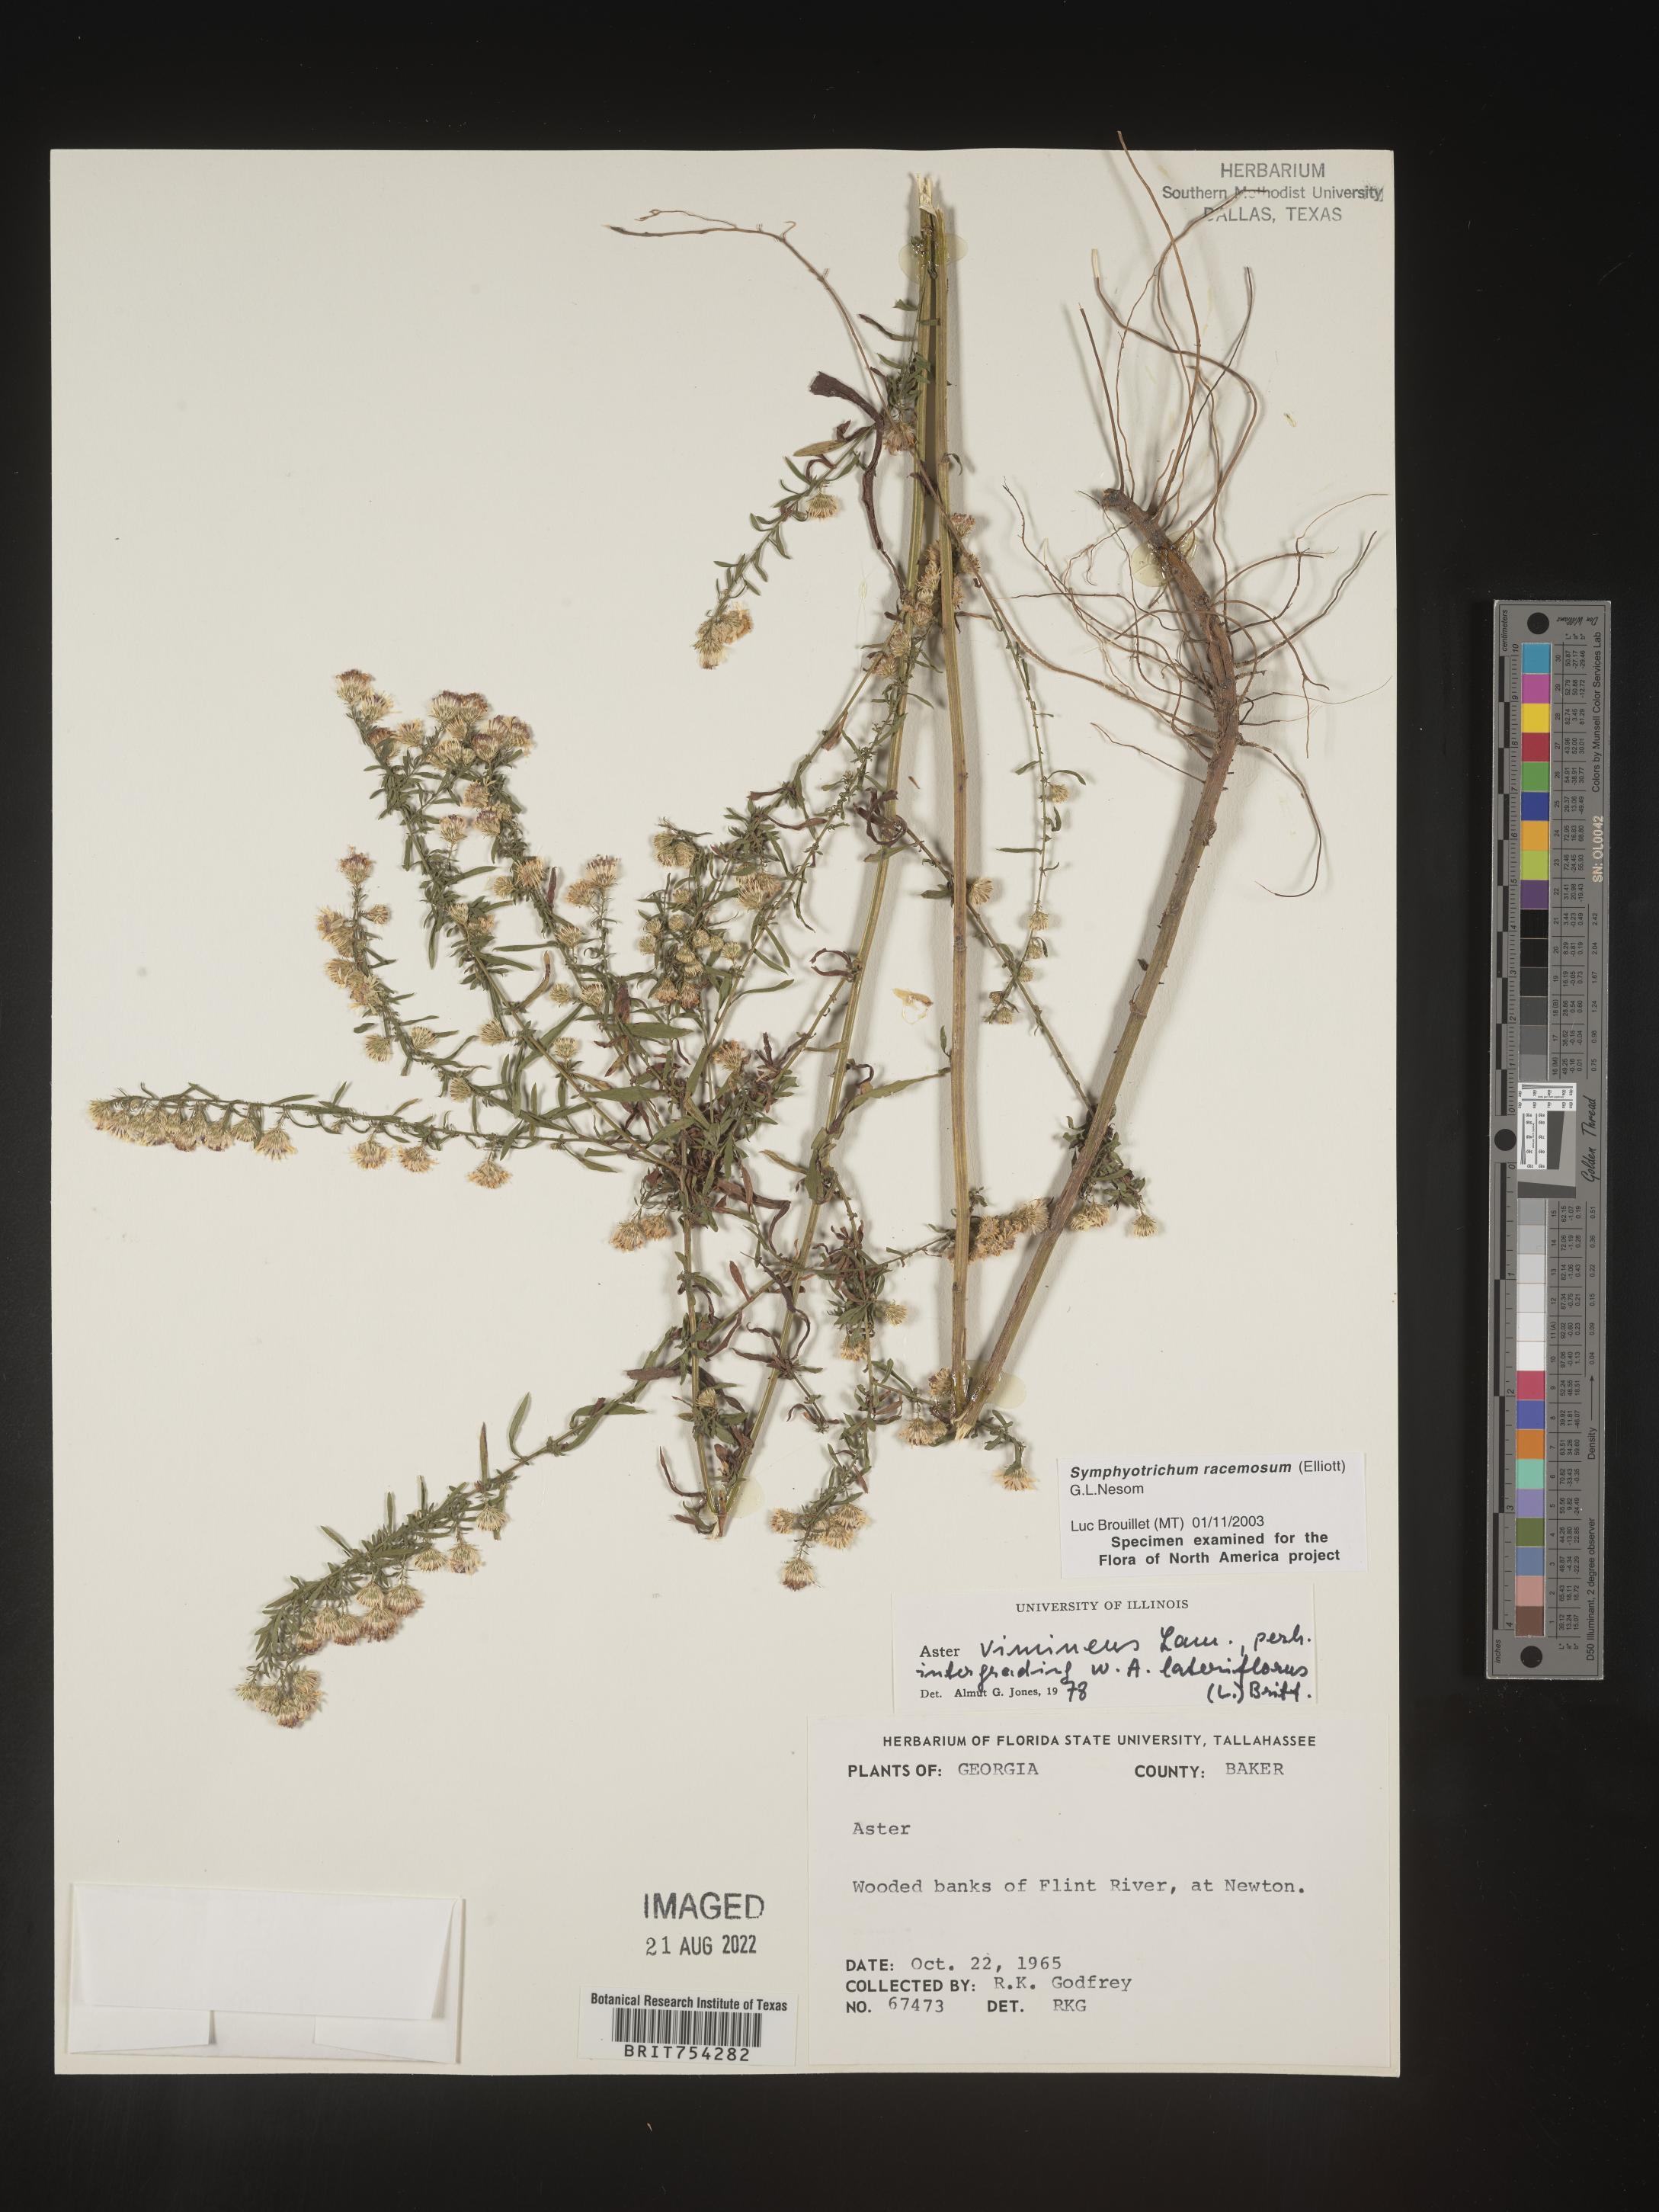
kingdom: Plantae
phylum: Tracheophyta
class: Magnoliopsida
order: Asterales
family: Asteraceae
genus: Symphyotrichum
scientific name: Symphyotrichum racemosum
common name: Small white aster
